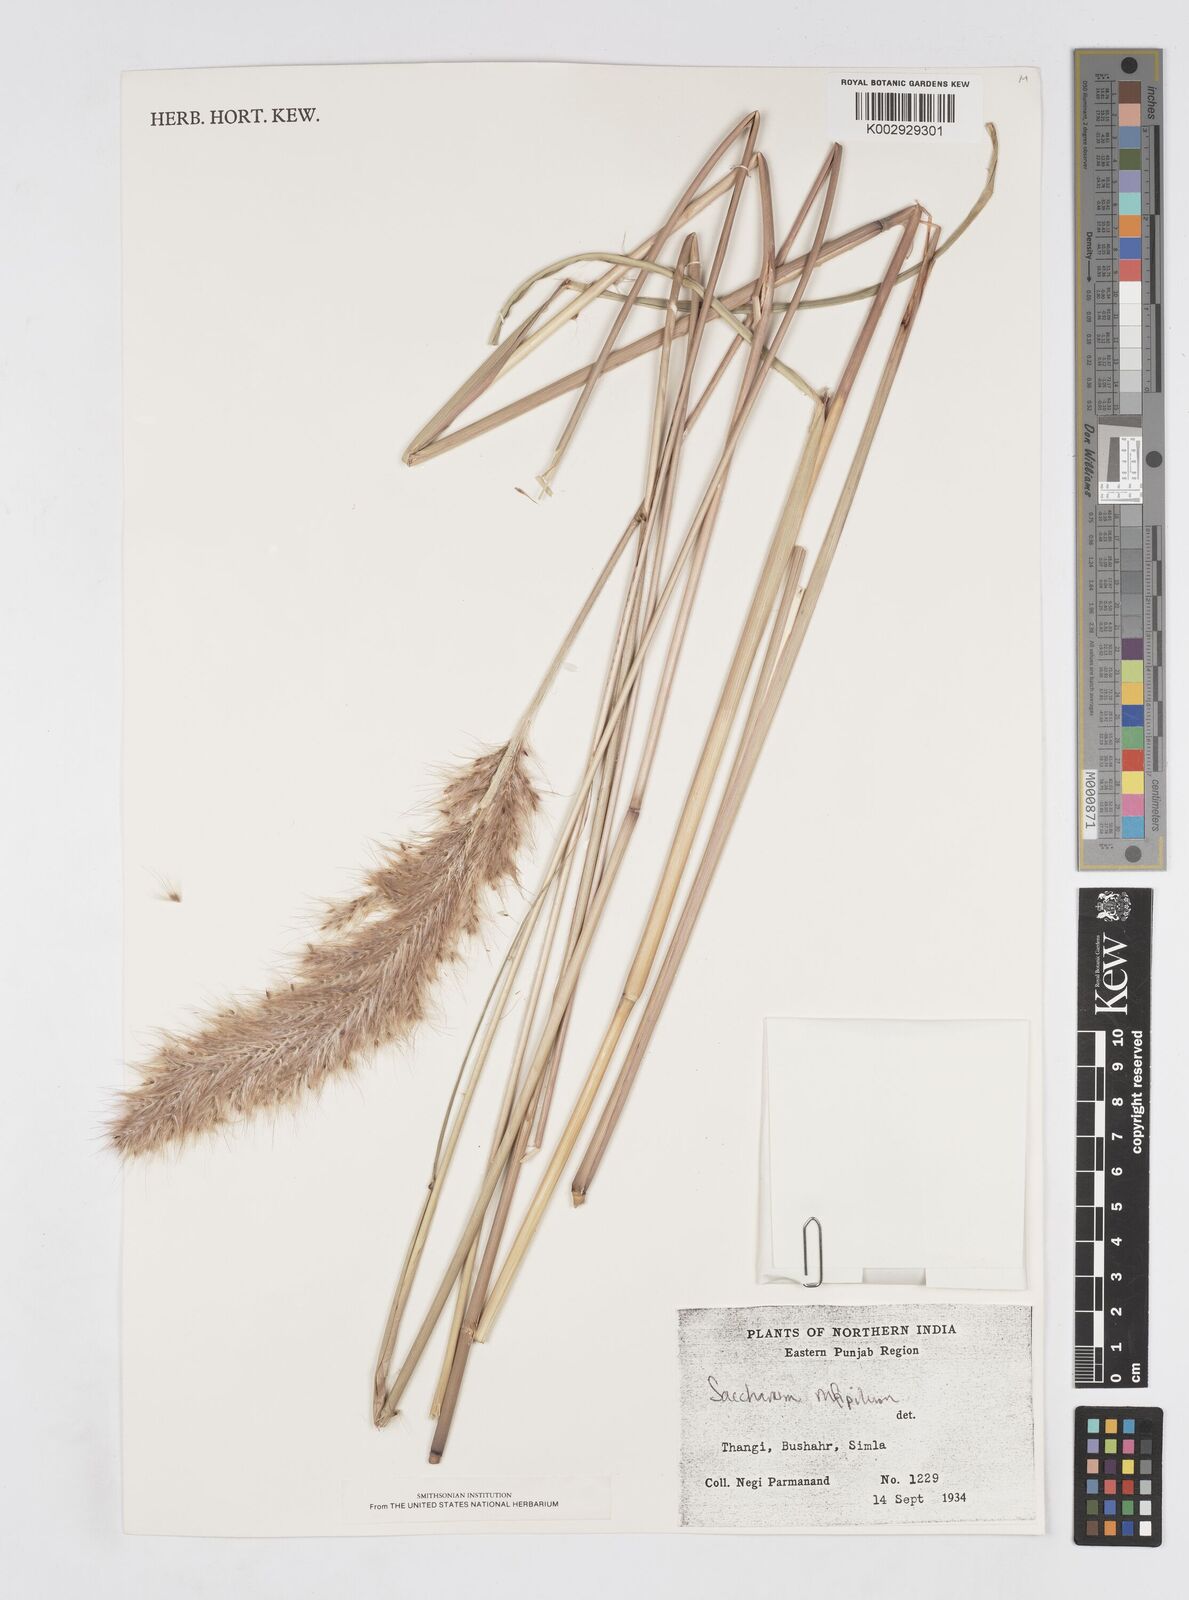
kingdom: Plantae
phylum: Tracheophyta
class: Liliopsida
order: Poales
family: Poaceae
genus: Tripidium
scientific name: Tripidium rufipilum
